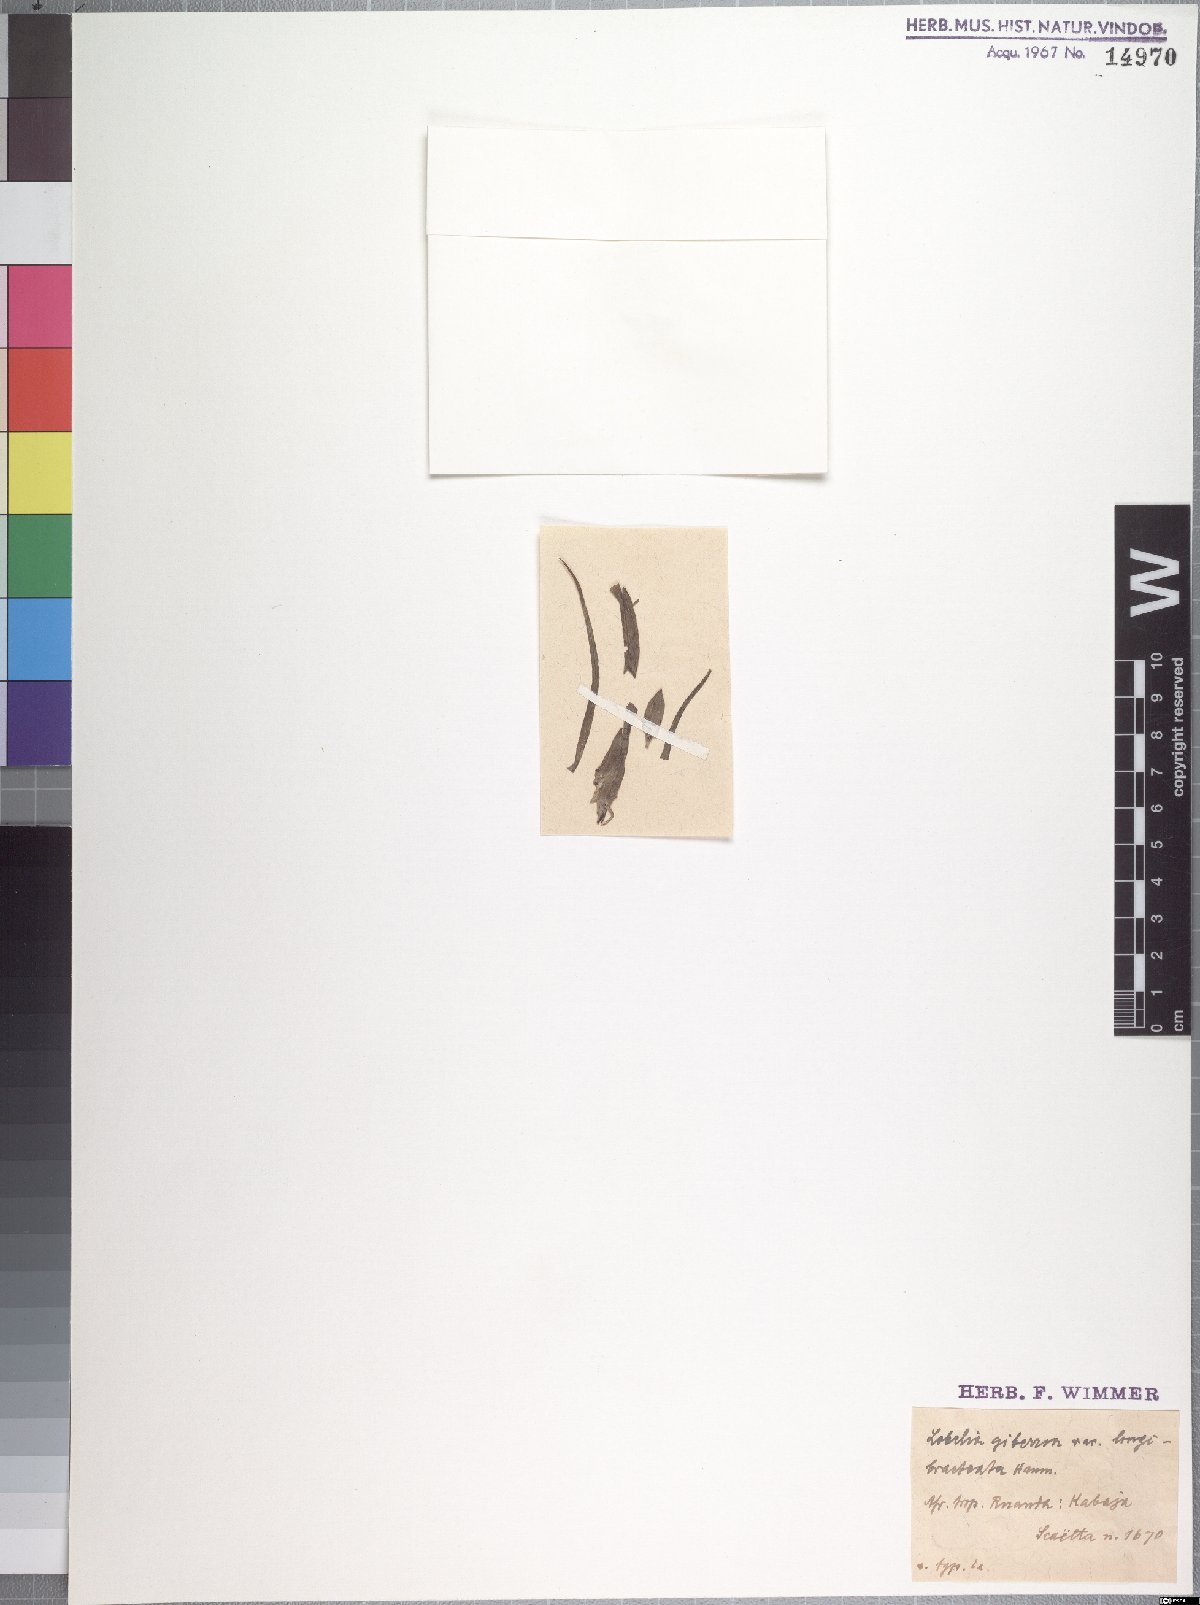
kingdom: Plantae
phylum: Tracheophyta
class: Magnoliopsida
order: Asterales
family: Campanulaceae
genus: Lobelia
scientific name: Lobelia giberroa
